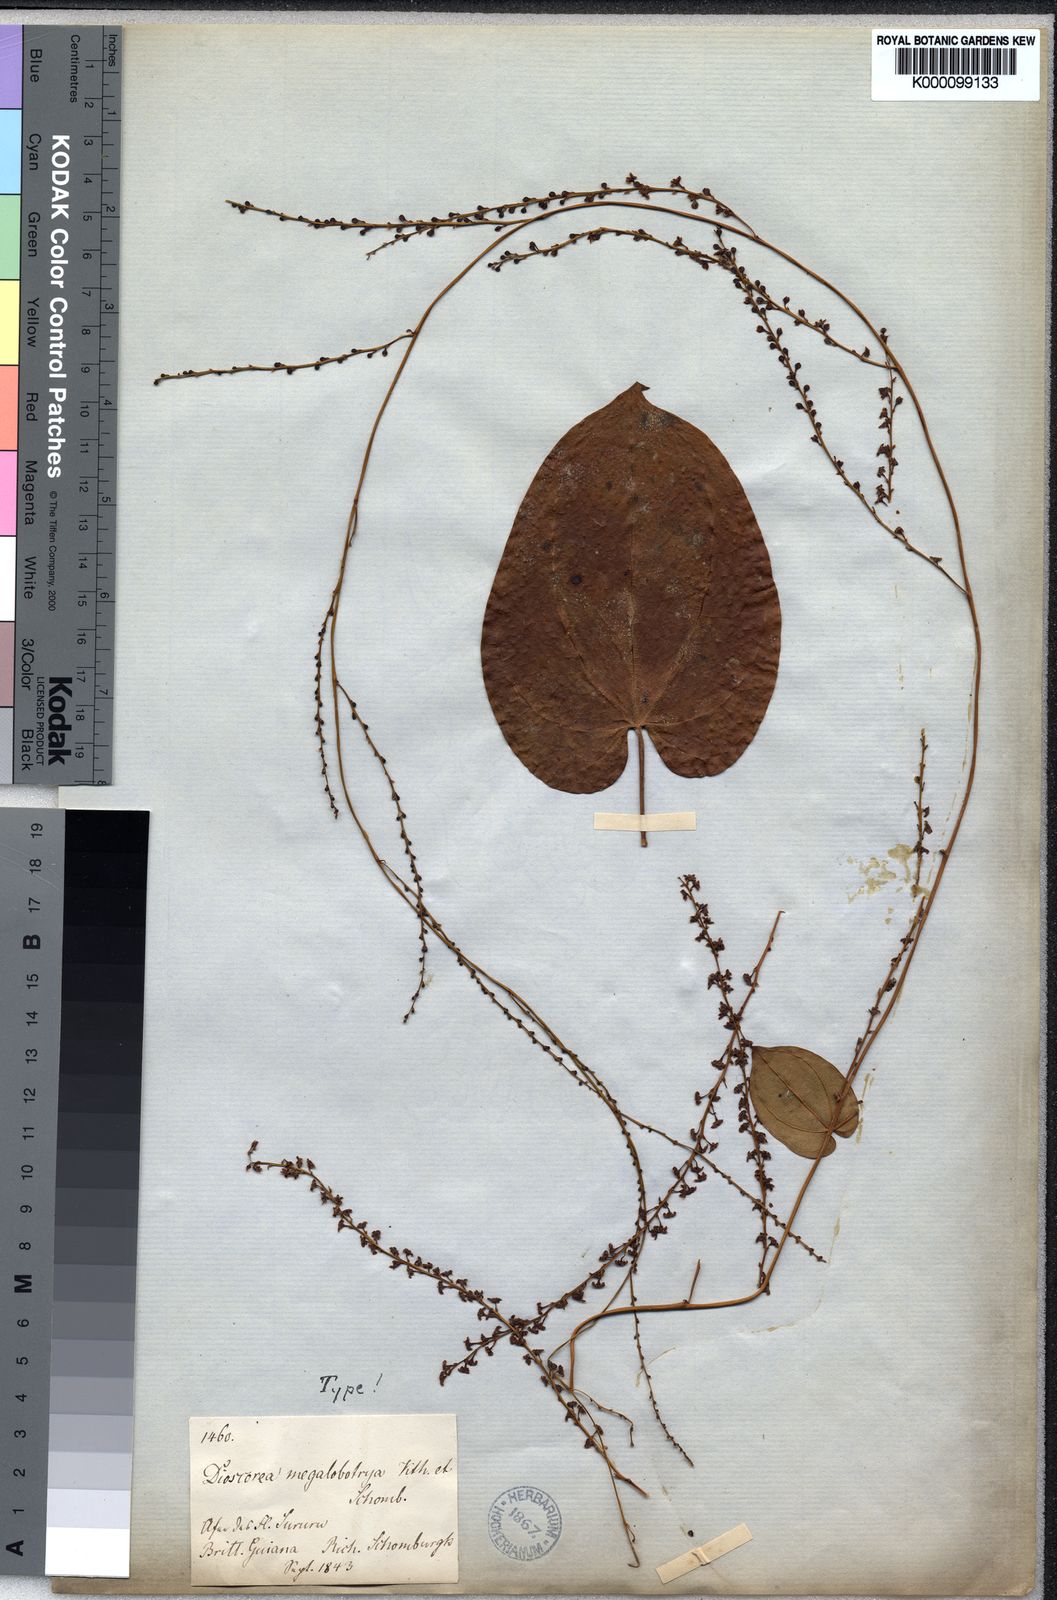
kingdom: Plantae
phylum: Tracheophyta
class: Liliopsida
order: Dioscoreales
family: Dioscoreaceae
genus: Dioscorea
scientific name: Dioscorea amazonum
